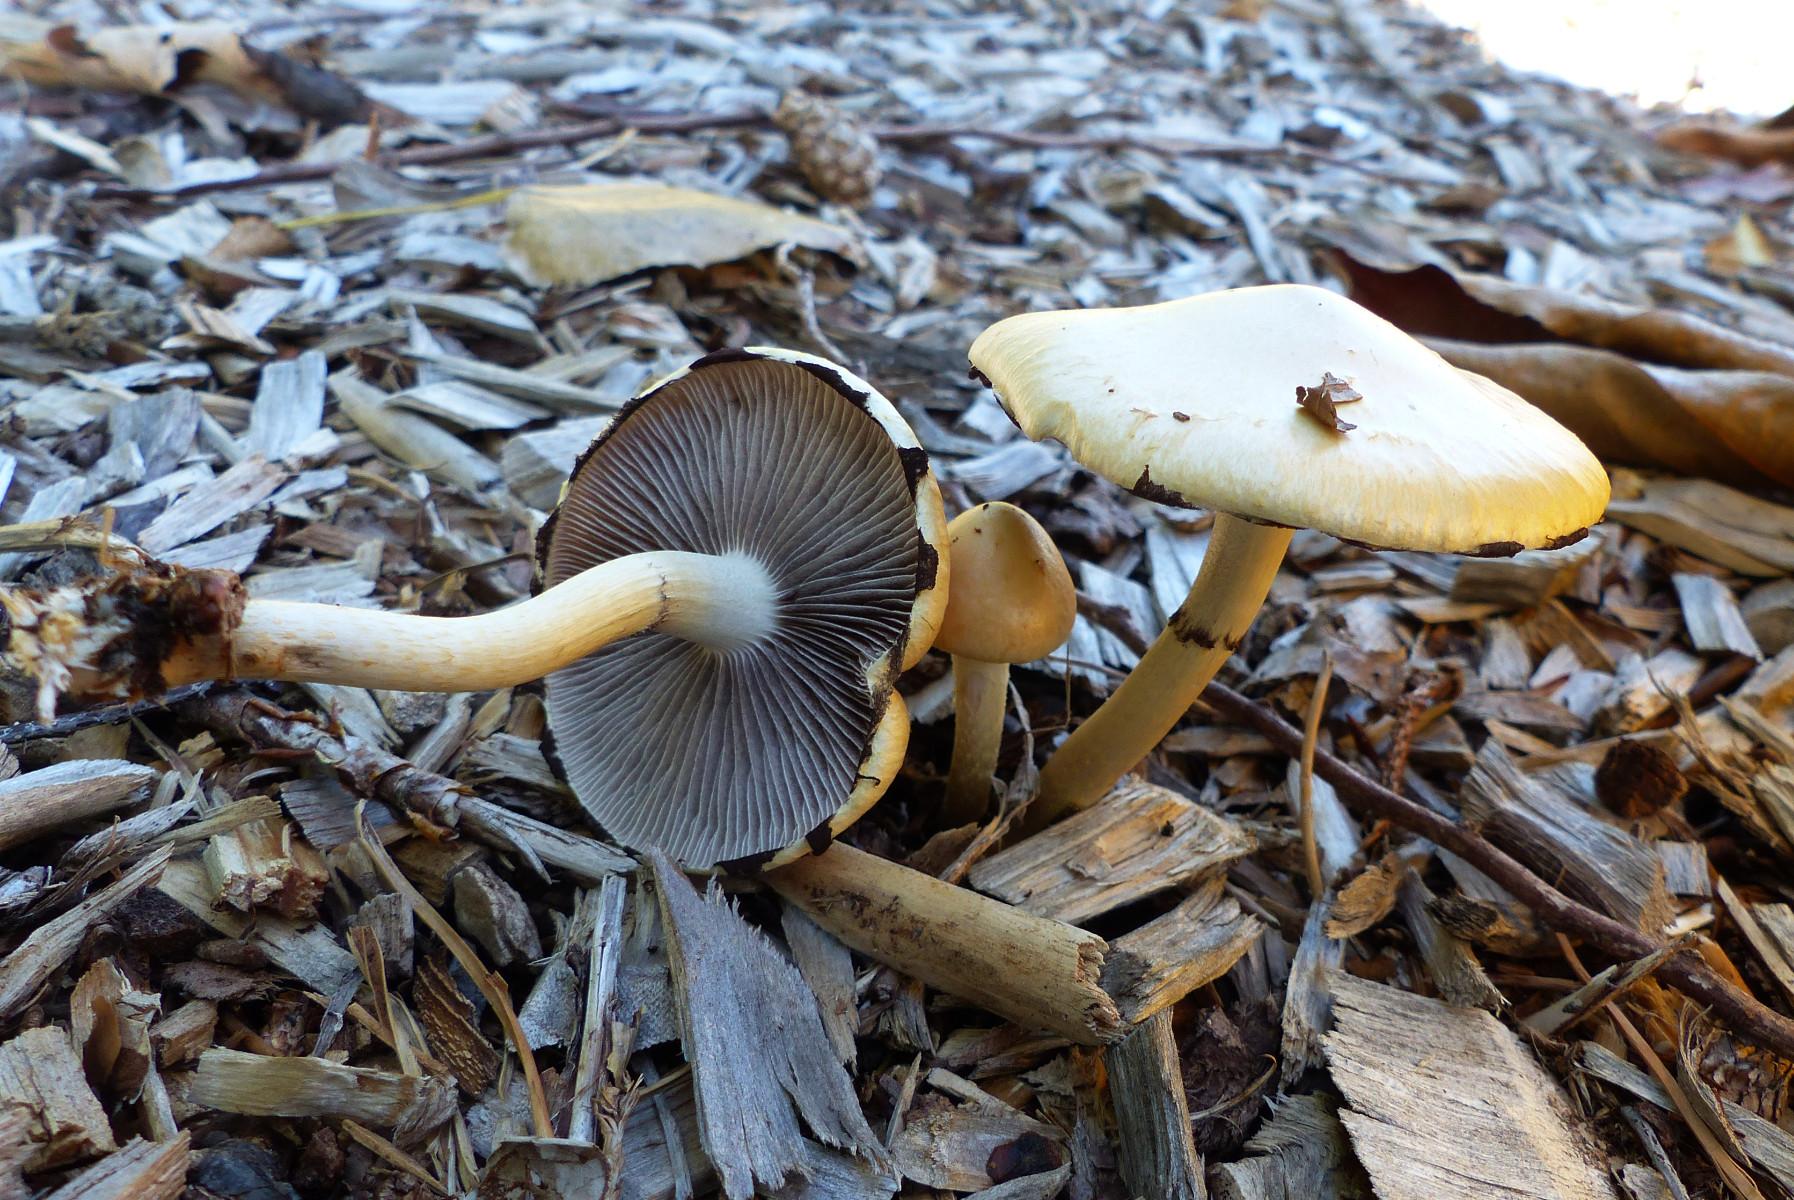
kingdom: Fungi
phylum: Basidiomycota
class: Agaricomycetes
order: Agaricales
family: Strophariaceae
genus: Leratiomyces
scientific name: Leratiomyces percevalii
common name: træflis-bredblad
